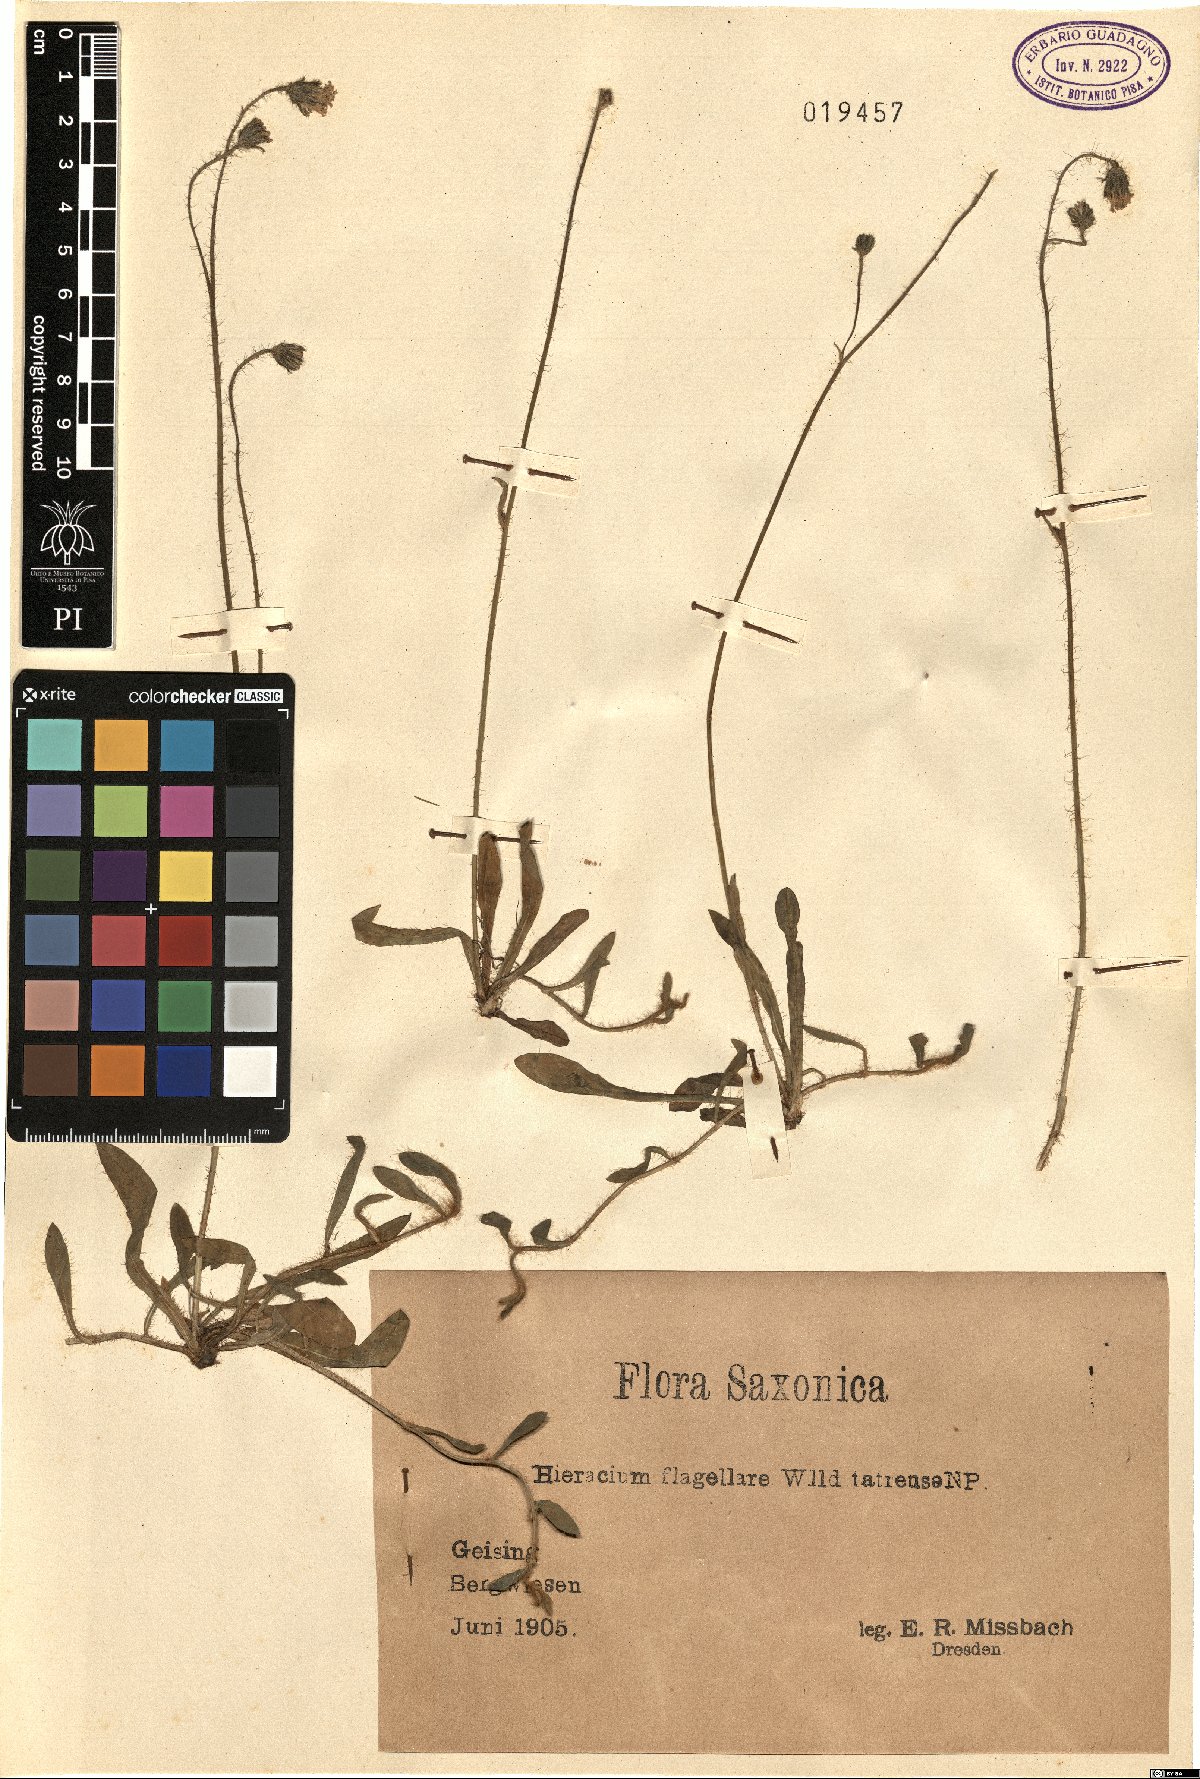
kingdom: Plantae
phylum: Tracheophyta
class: Magnoliopsida
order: Asterales
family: Asteraceae
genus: Pilosella
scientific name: Pilosella flagellaris
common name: Flagellate hawkweed
